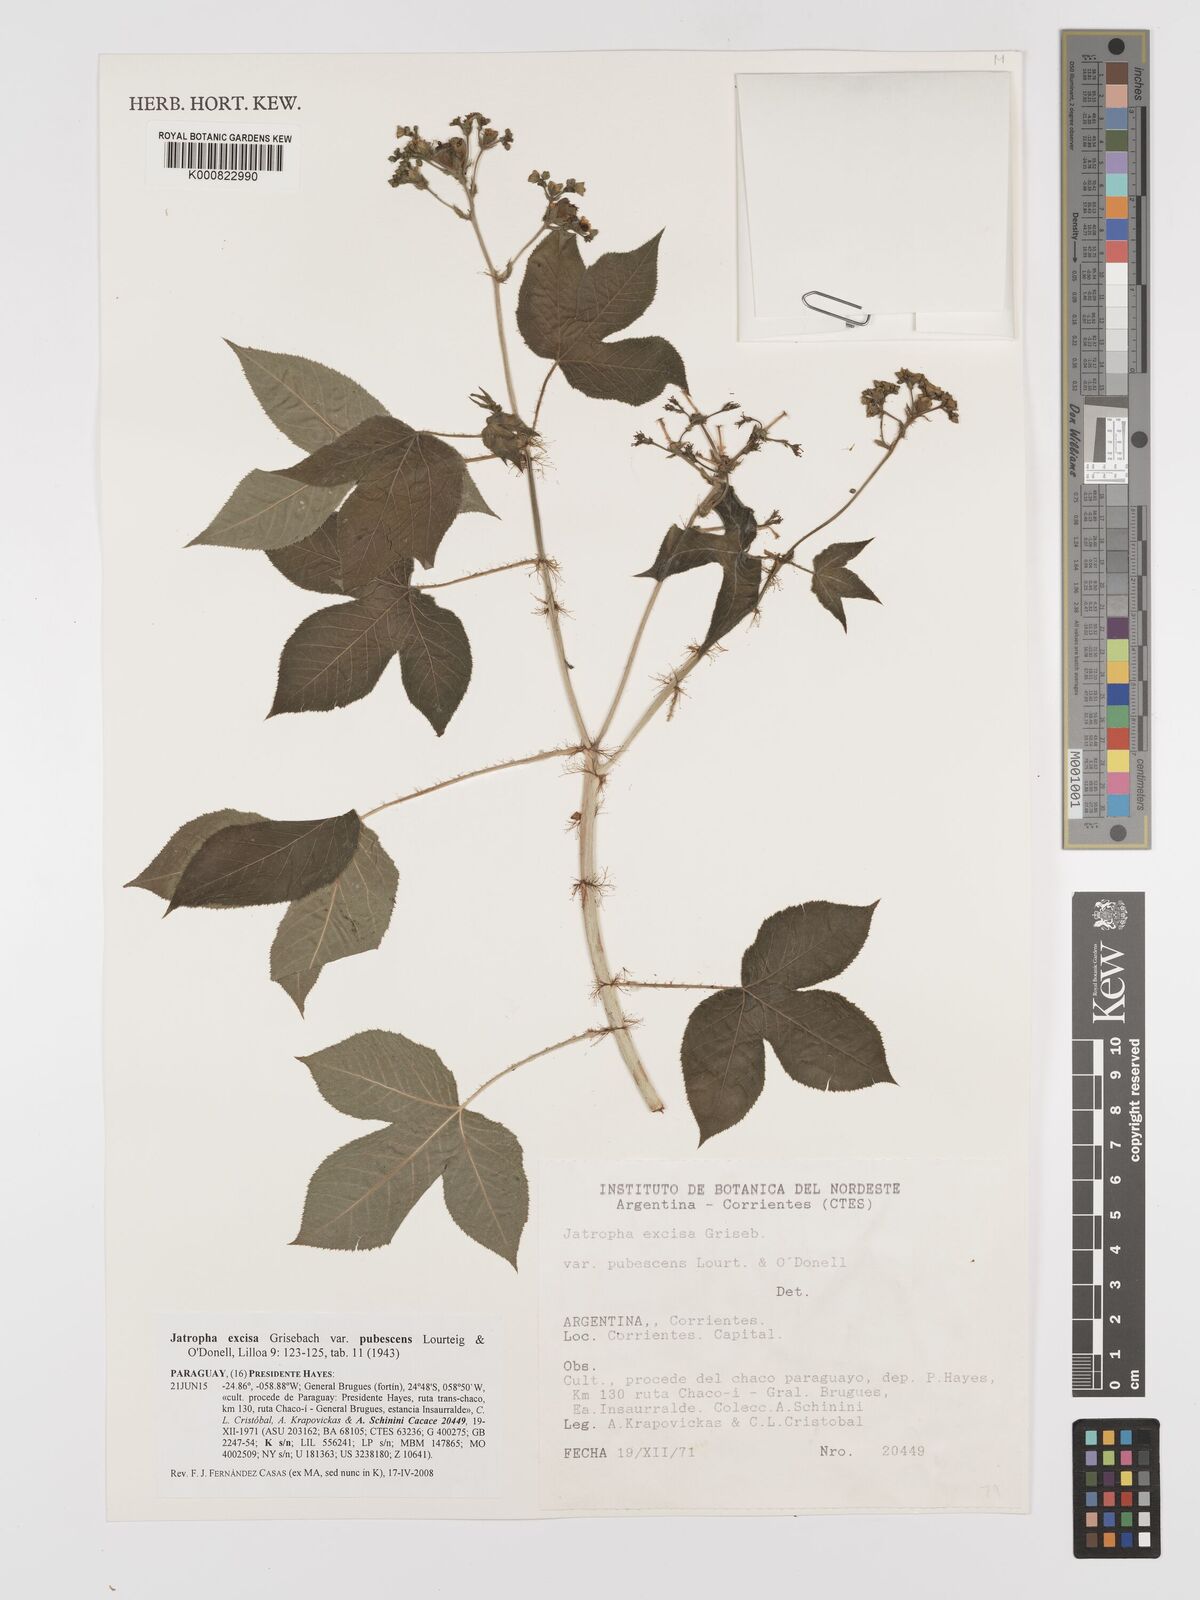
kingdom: Plantae
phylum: Tracheophyta
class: Magnoliopsida
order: Malpighiales
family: Euphorbiaceae
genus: Jatropha
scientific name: Jatropha excisa
